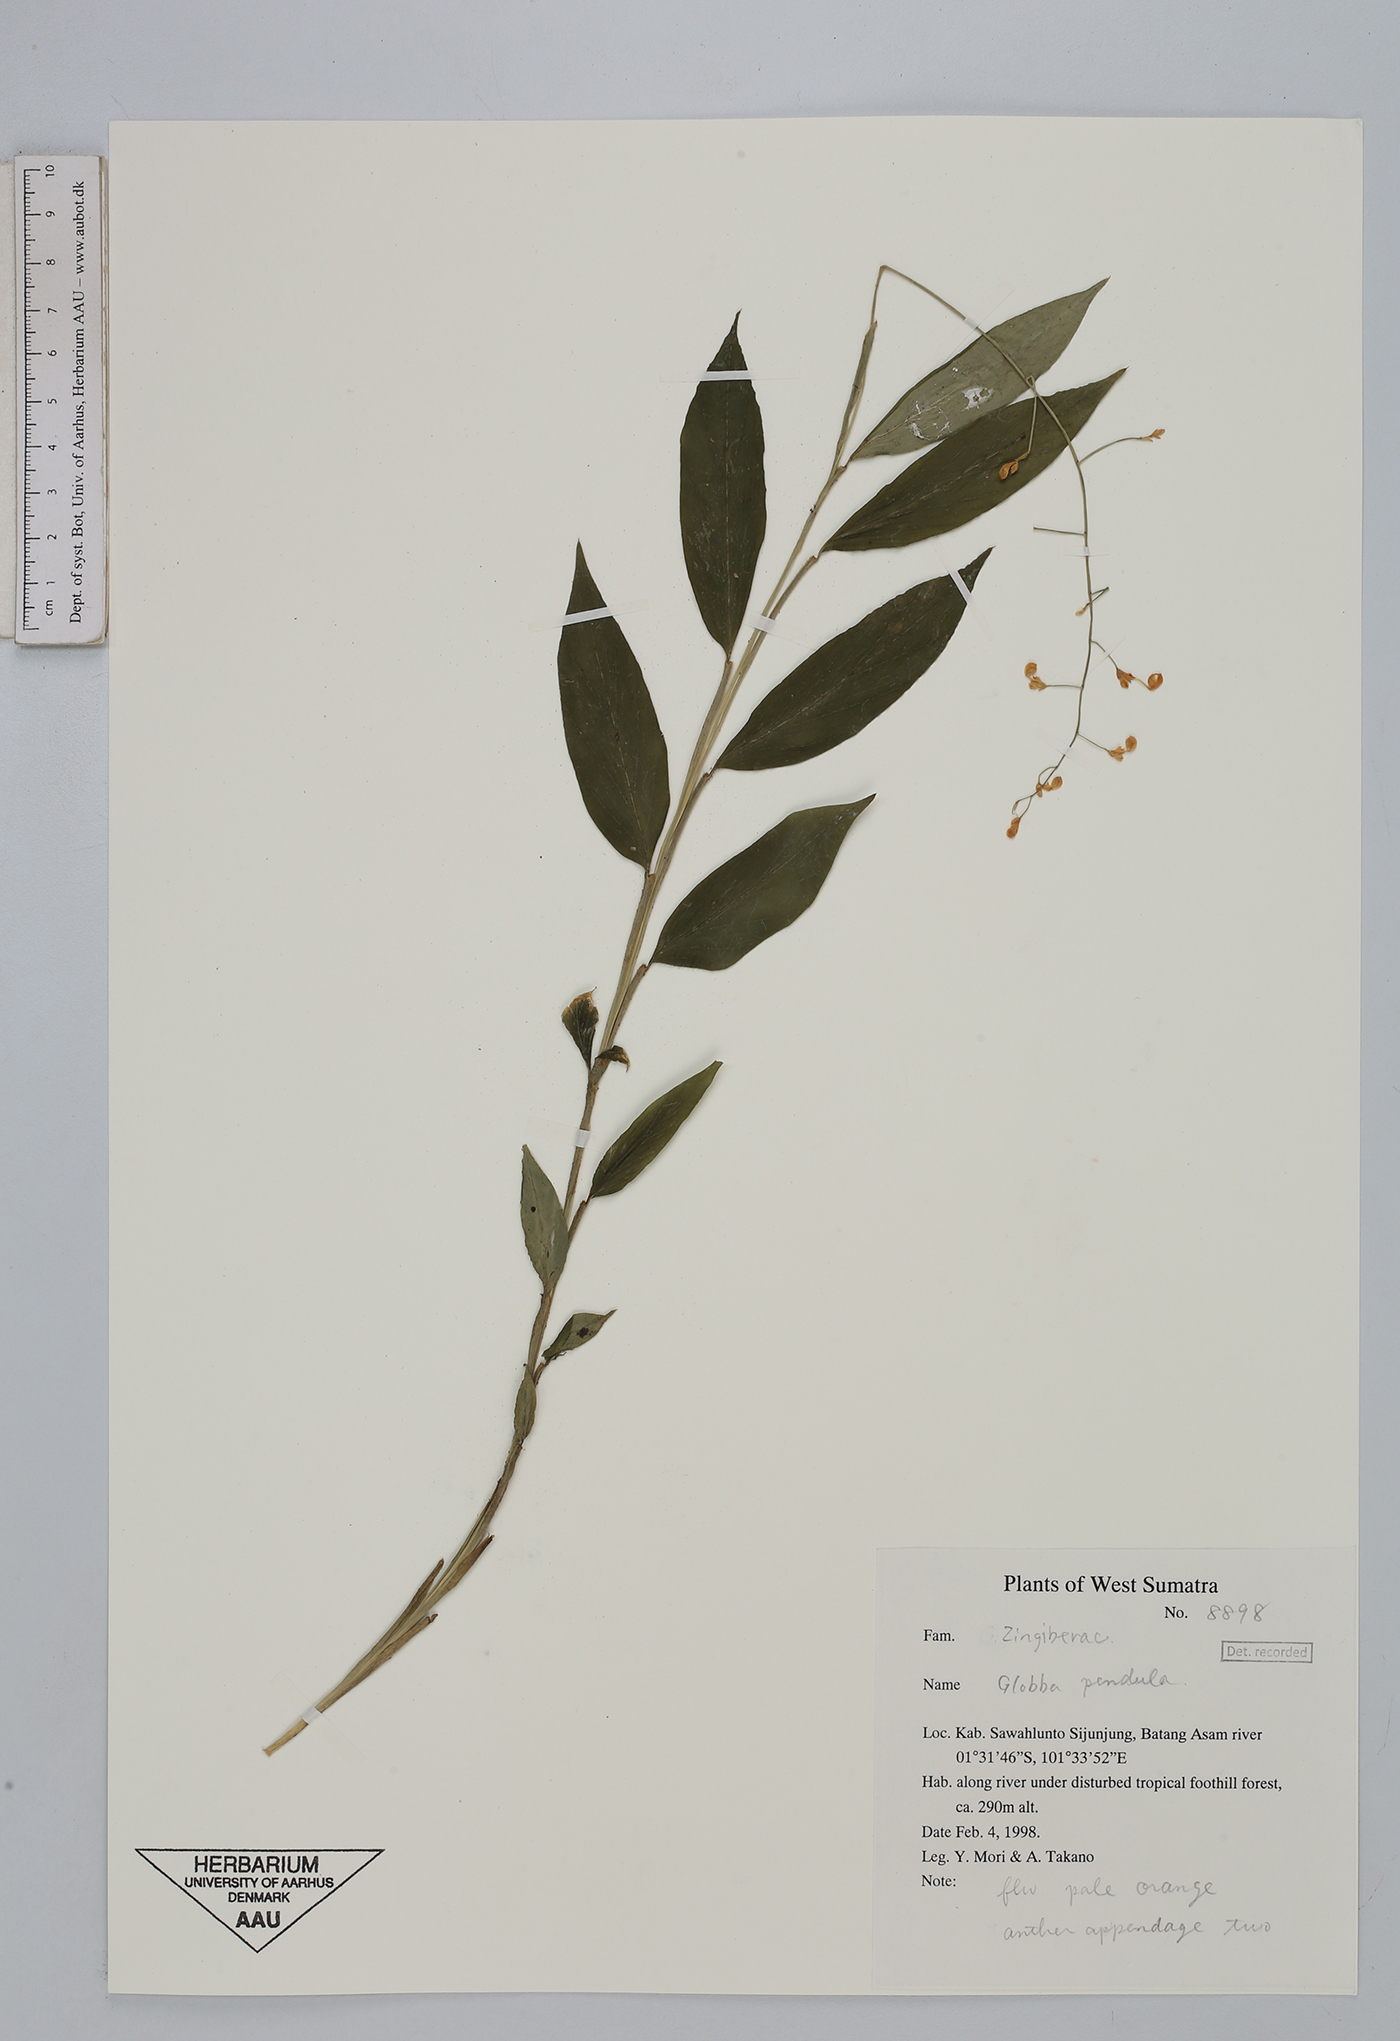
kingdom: Plantae
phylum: Tracheophyta
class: Liliopsida
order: Zingiberales
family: Zingiberaceae
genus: Globba
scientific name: Globba pendula
